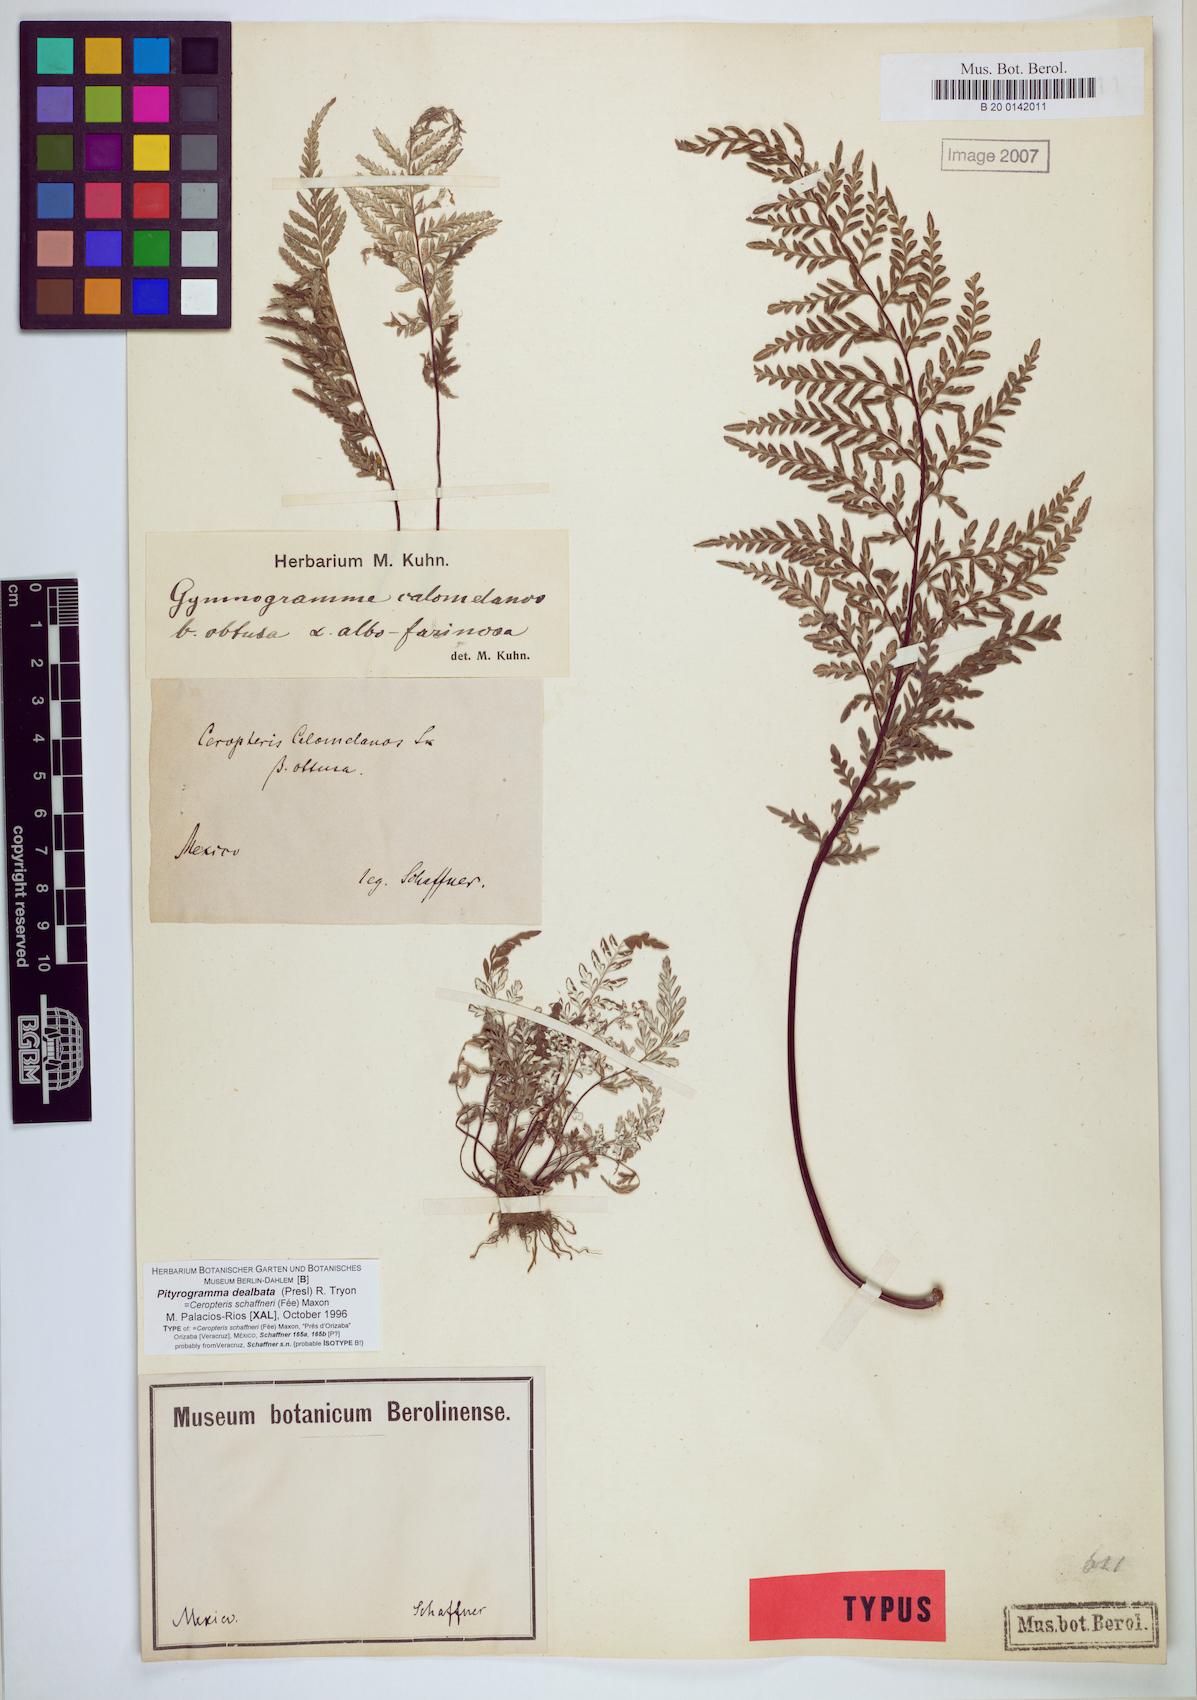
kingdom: Plantae
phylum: Tracheophyta
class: Polypodiopsida
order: Polypodiales
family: Pteridaceae
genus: Pityrogramma
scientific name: Pityrogramma dealbata
